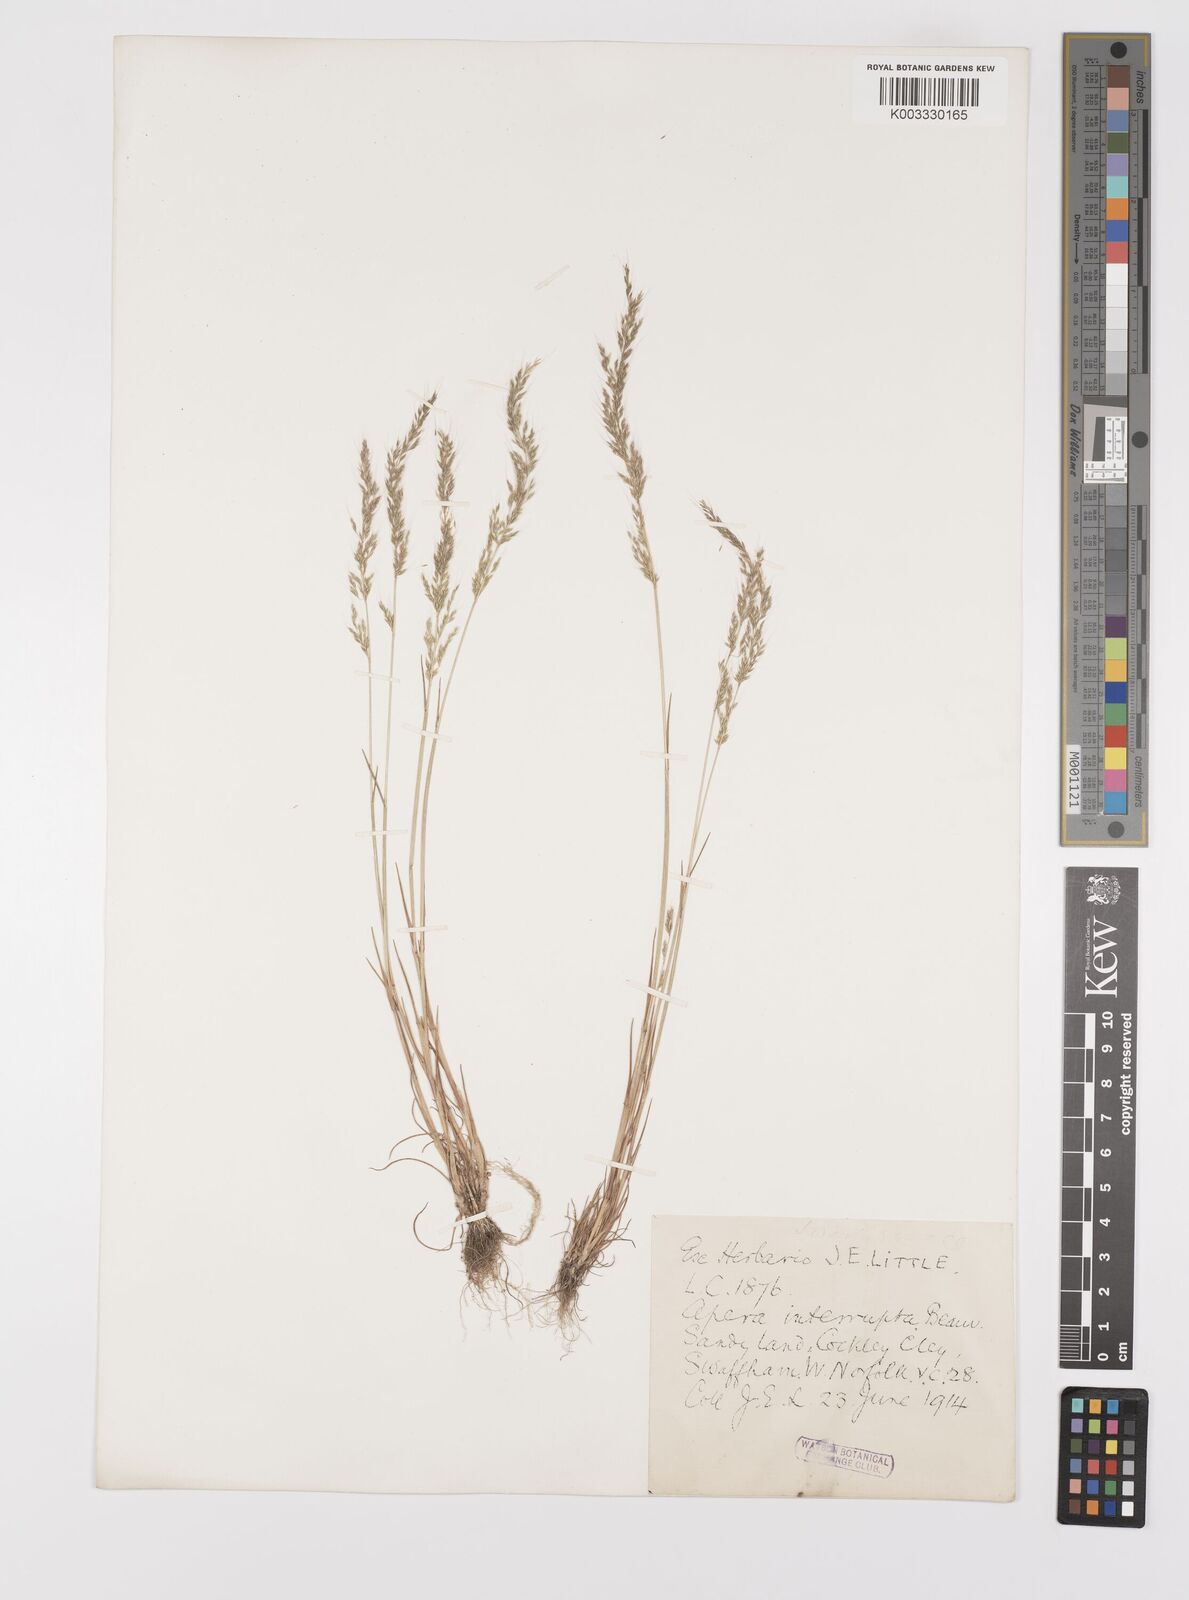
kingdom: Plantae
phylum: Tracheophyta
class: Liliopsida
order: Poales
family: Poaceae
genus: Apera
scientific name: Apera interrupta
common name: Dense silky-bent
